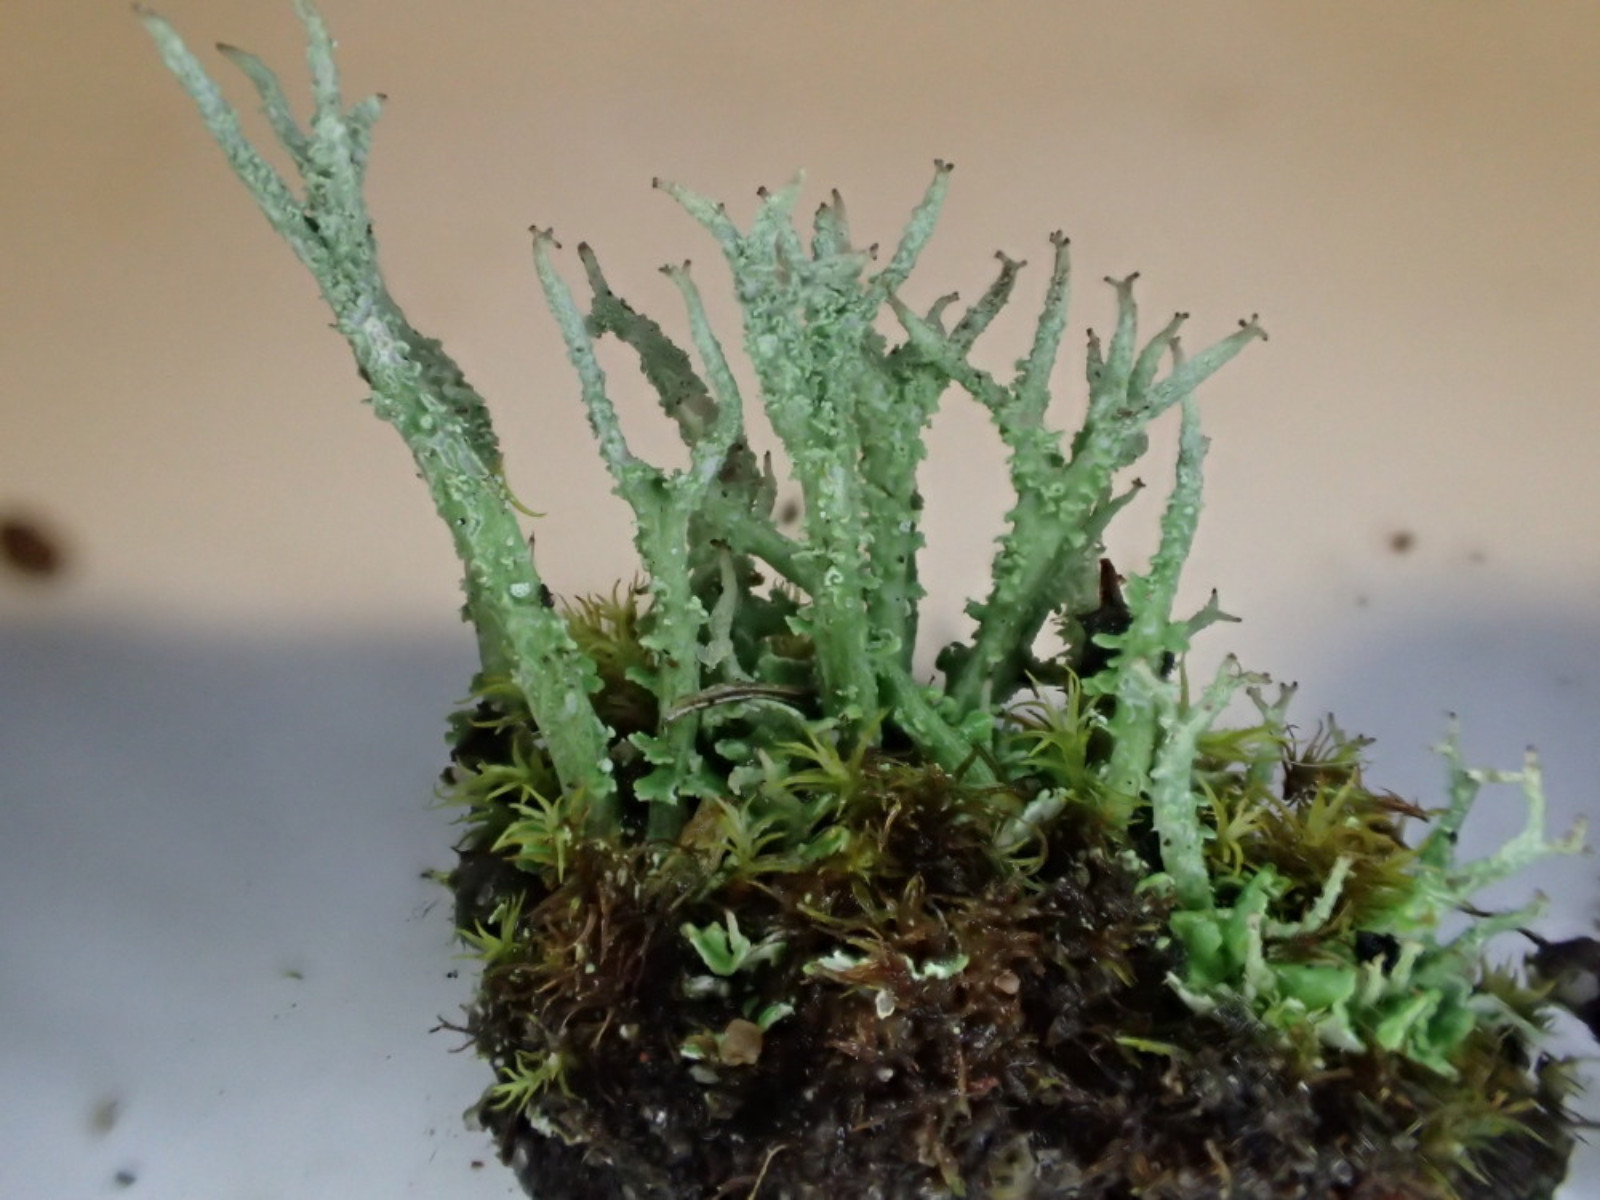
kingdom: Fungi
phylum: Ascomycota
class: Lecanoromycetes
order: Lecanorales
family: Cladoniaceae
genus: Cladonia
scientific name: Cladonia scabriuscula
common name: ru bægerlav
